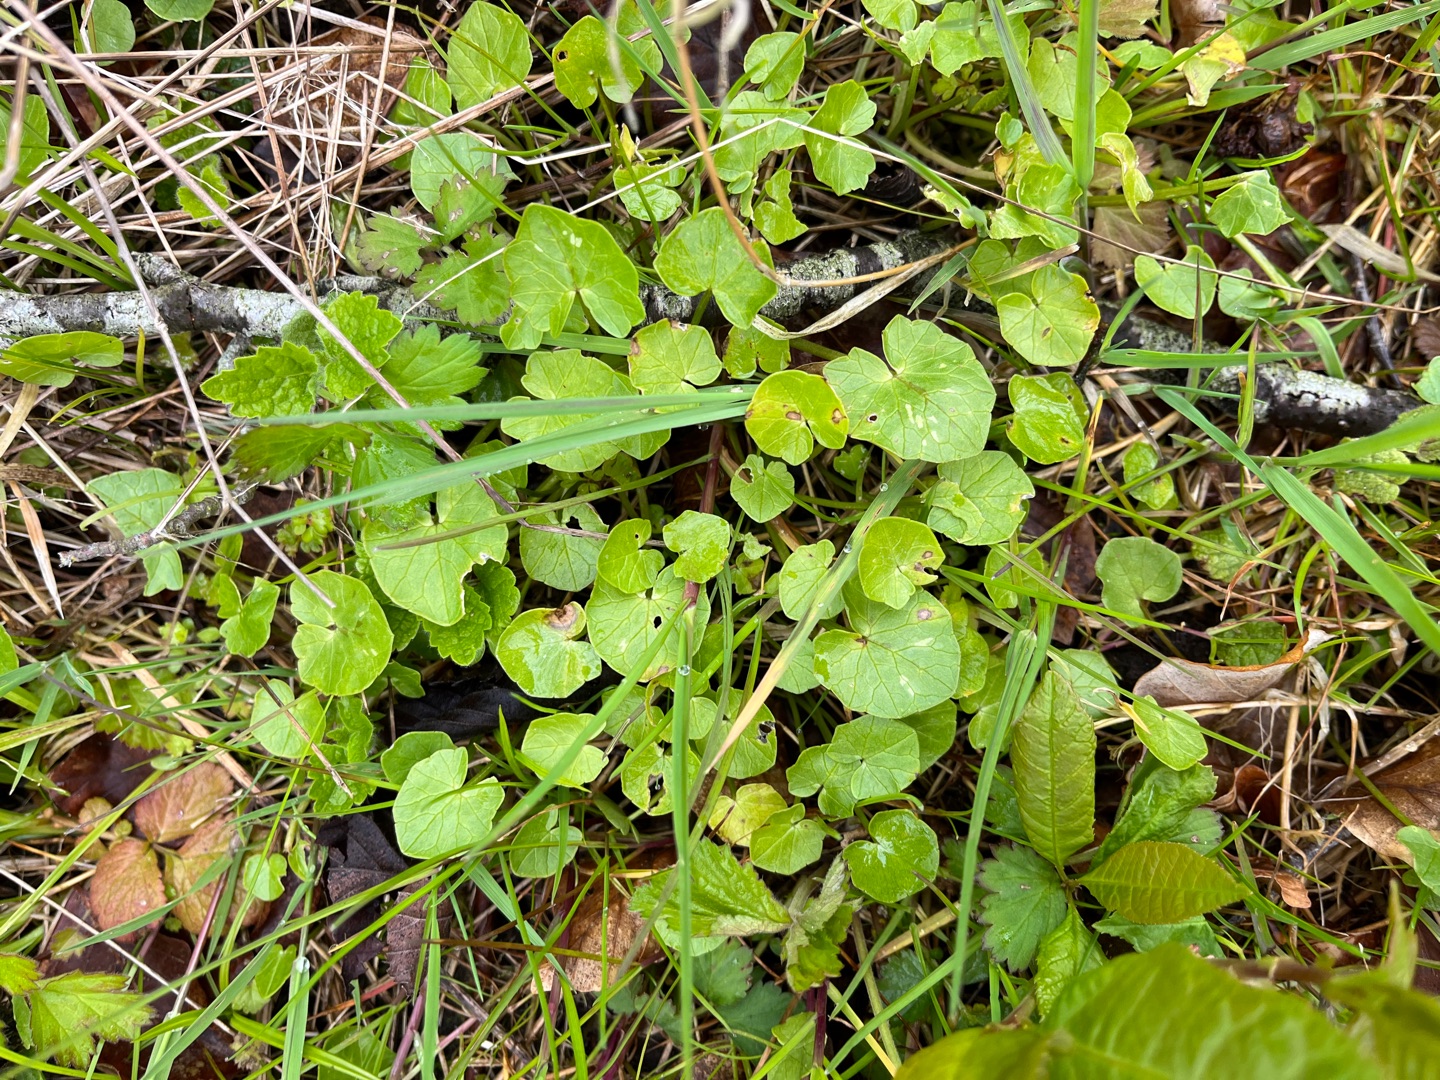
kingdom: Plantae
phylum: Tracheophyta
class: Magnoliopsida
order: Ranunculales
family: Ranunculaceae
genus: Ficaria
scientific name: Ficaria verna
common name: Vorterod
